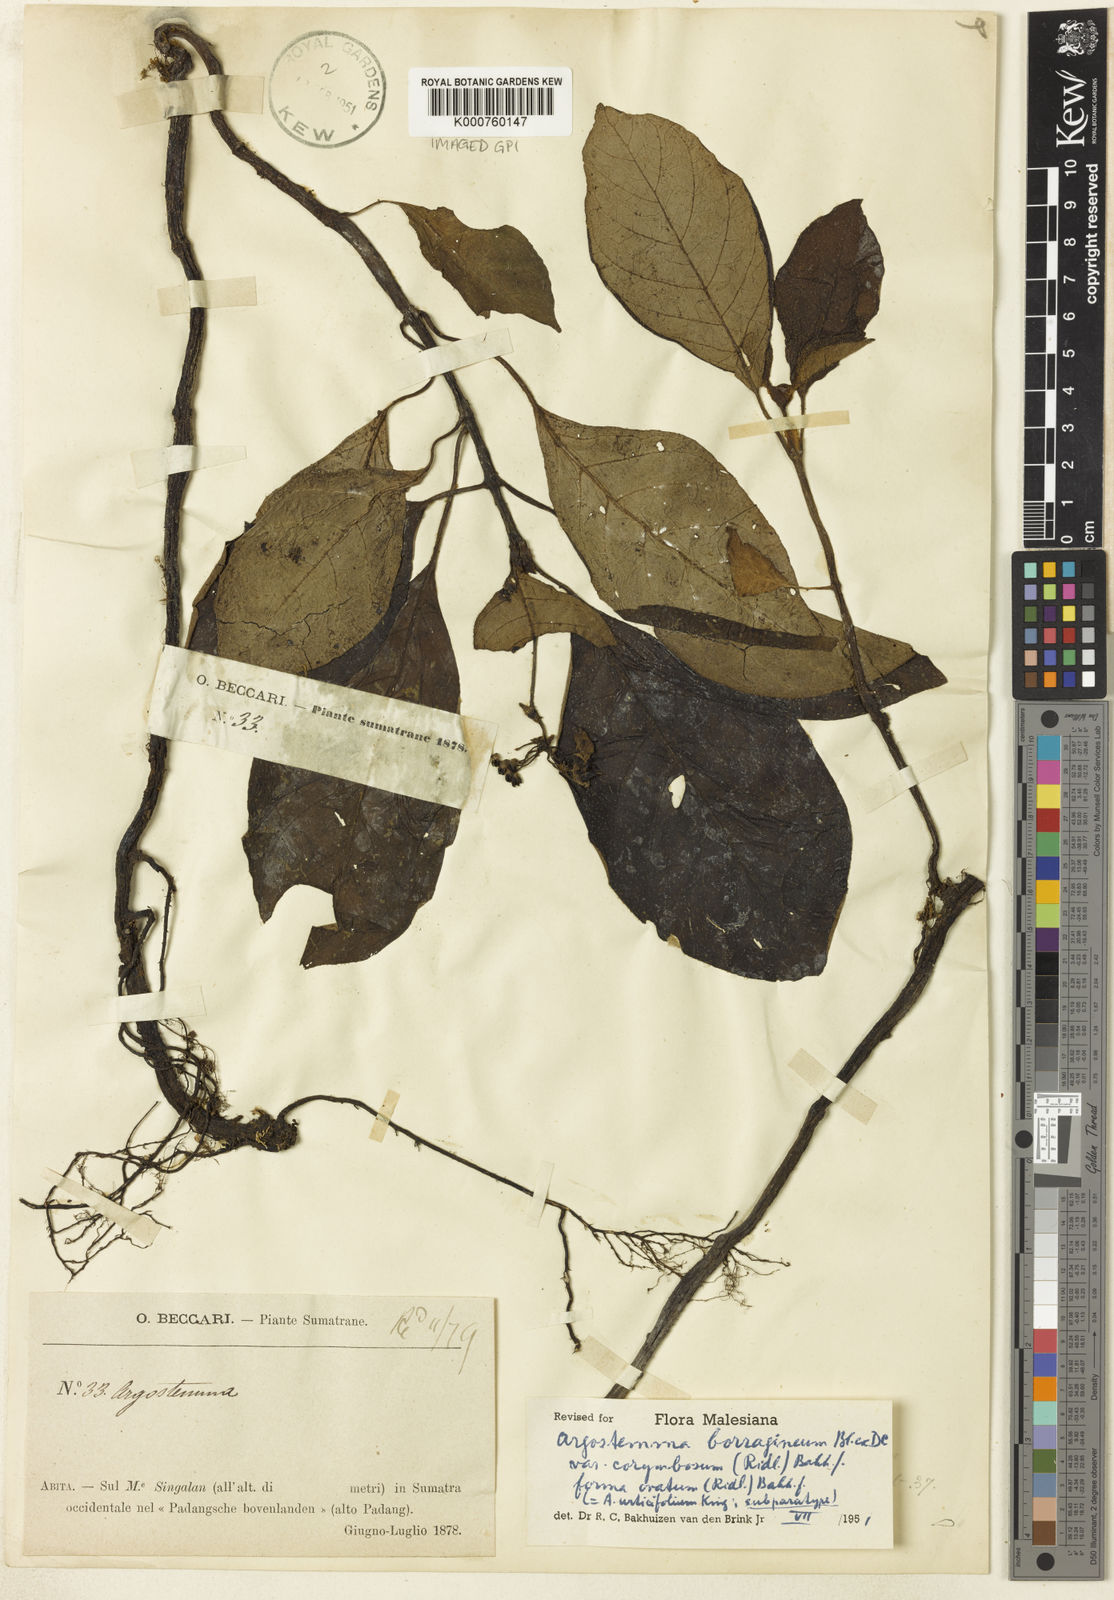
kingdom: Plantae
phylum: Tracheophyta
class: Magnoliopsida
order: Gentianales
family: Rubiaceae
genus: Argostemma
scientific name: Argostemma borragineum
